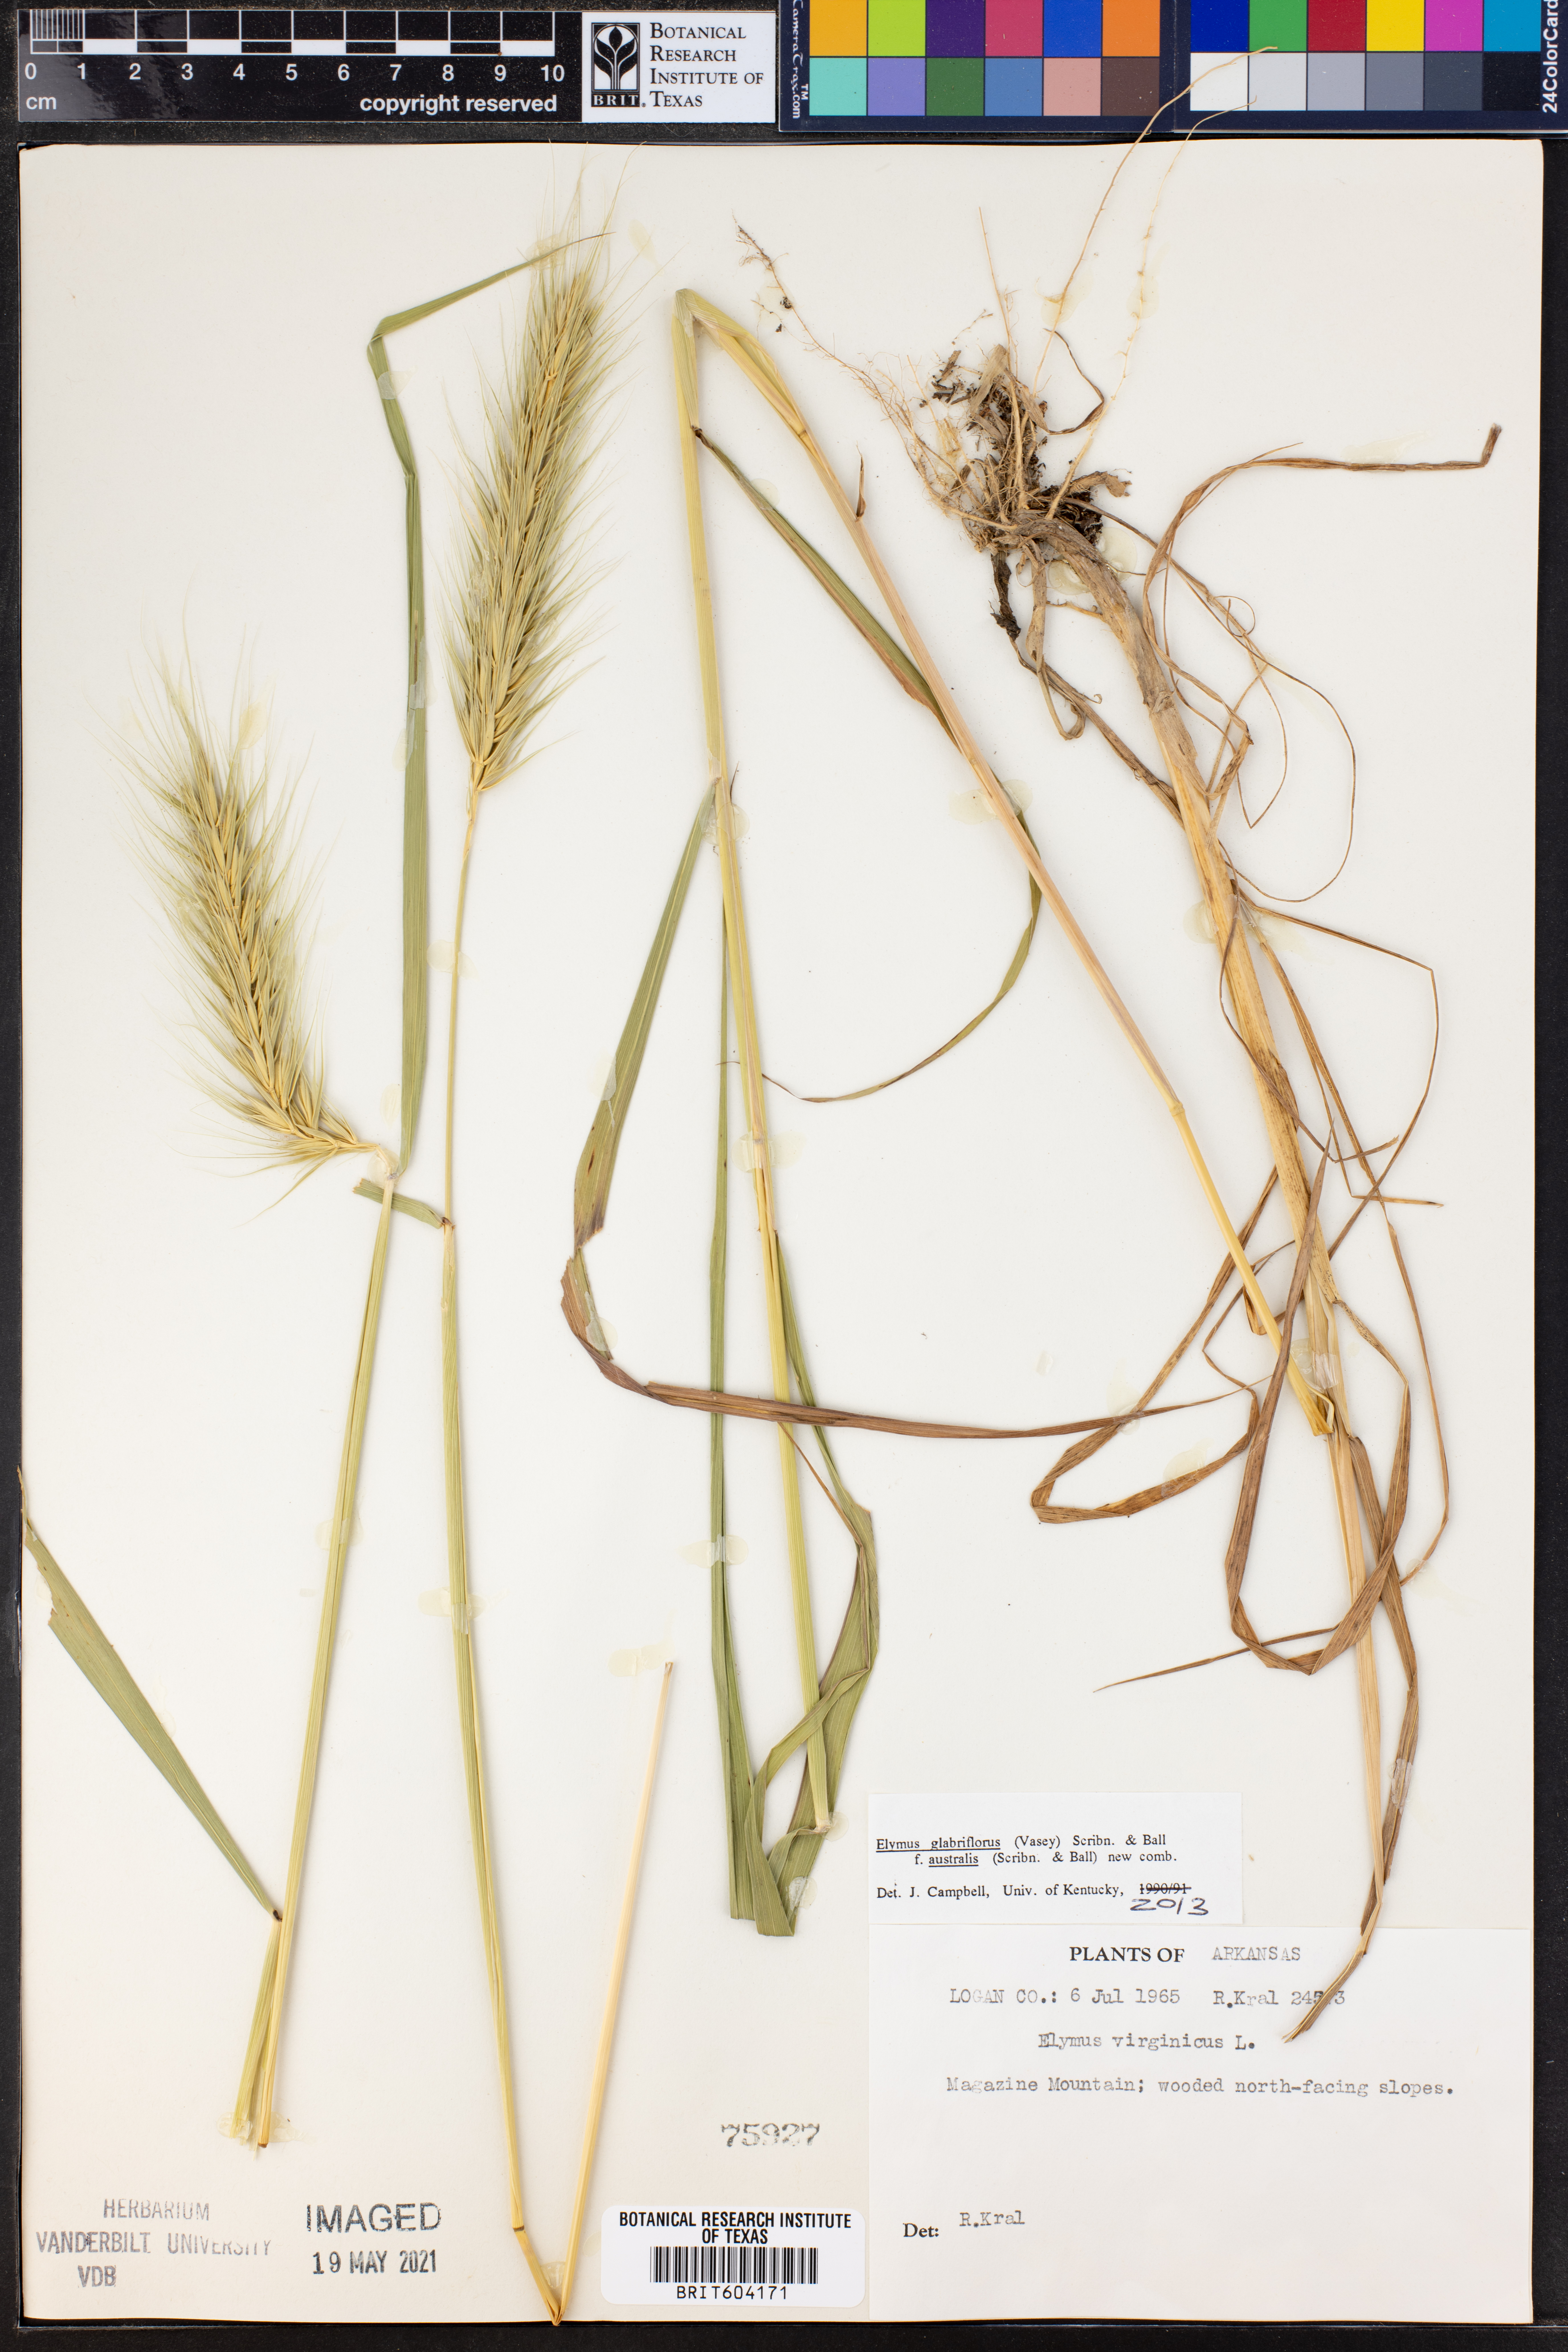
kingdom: Plantae
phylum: Tracheophyta
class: Liliopsida
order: Poales
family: Poaceae
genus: Elymus
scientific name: Elymus virginicus
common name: Common eastern wildrye
